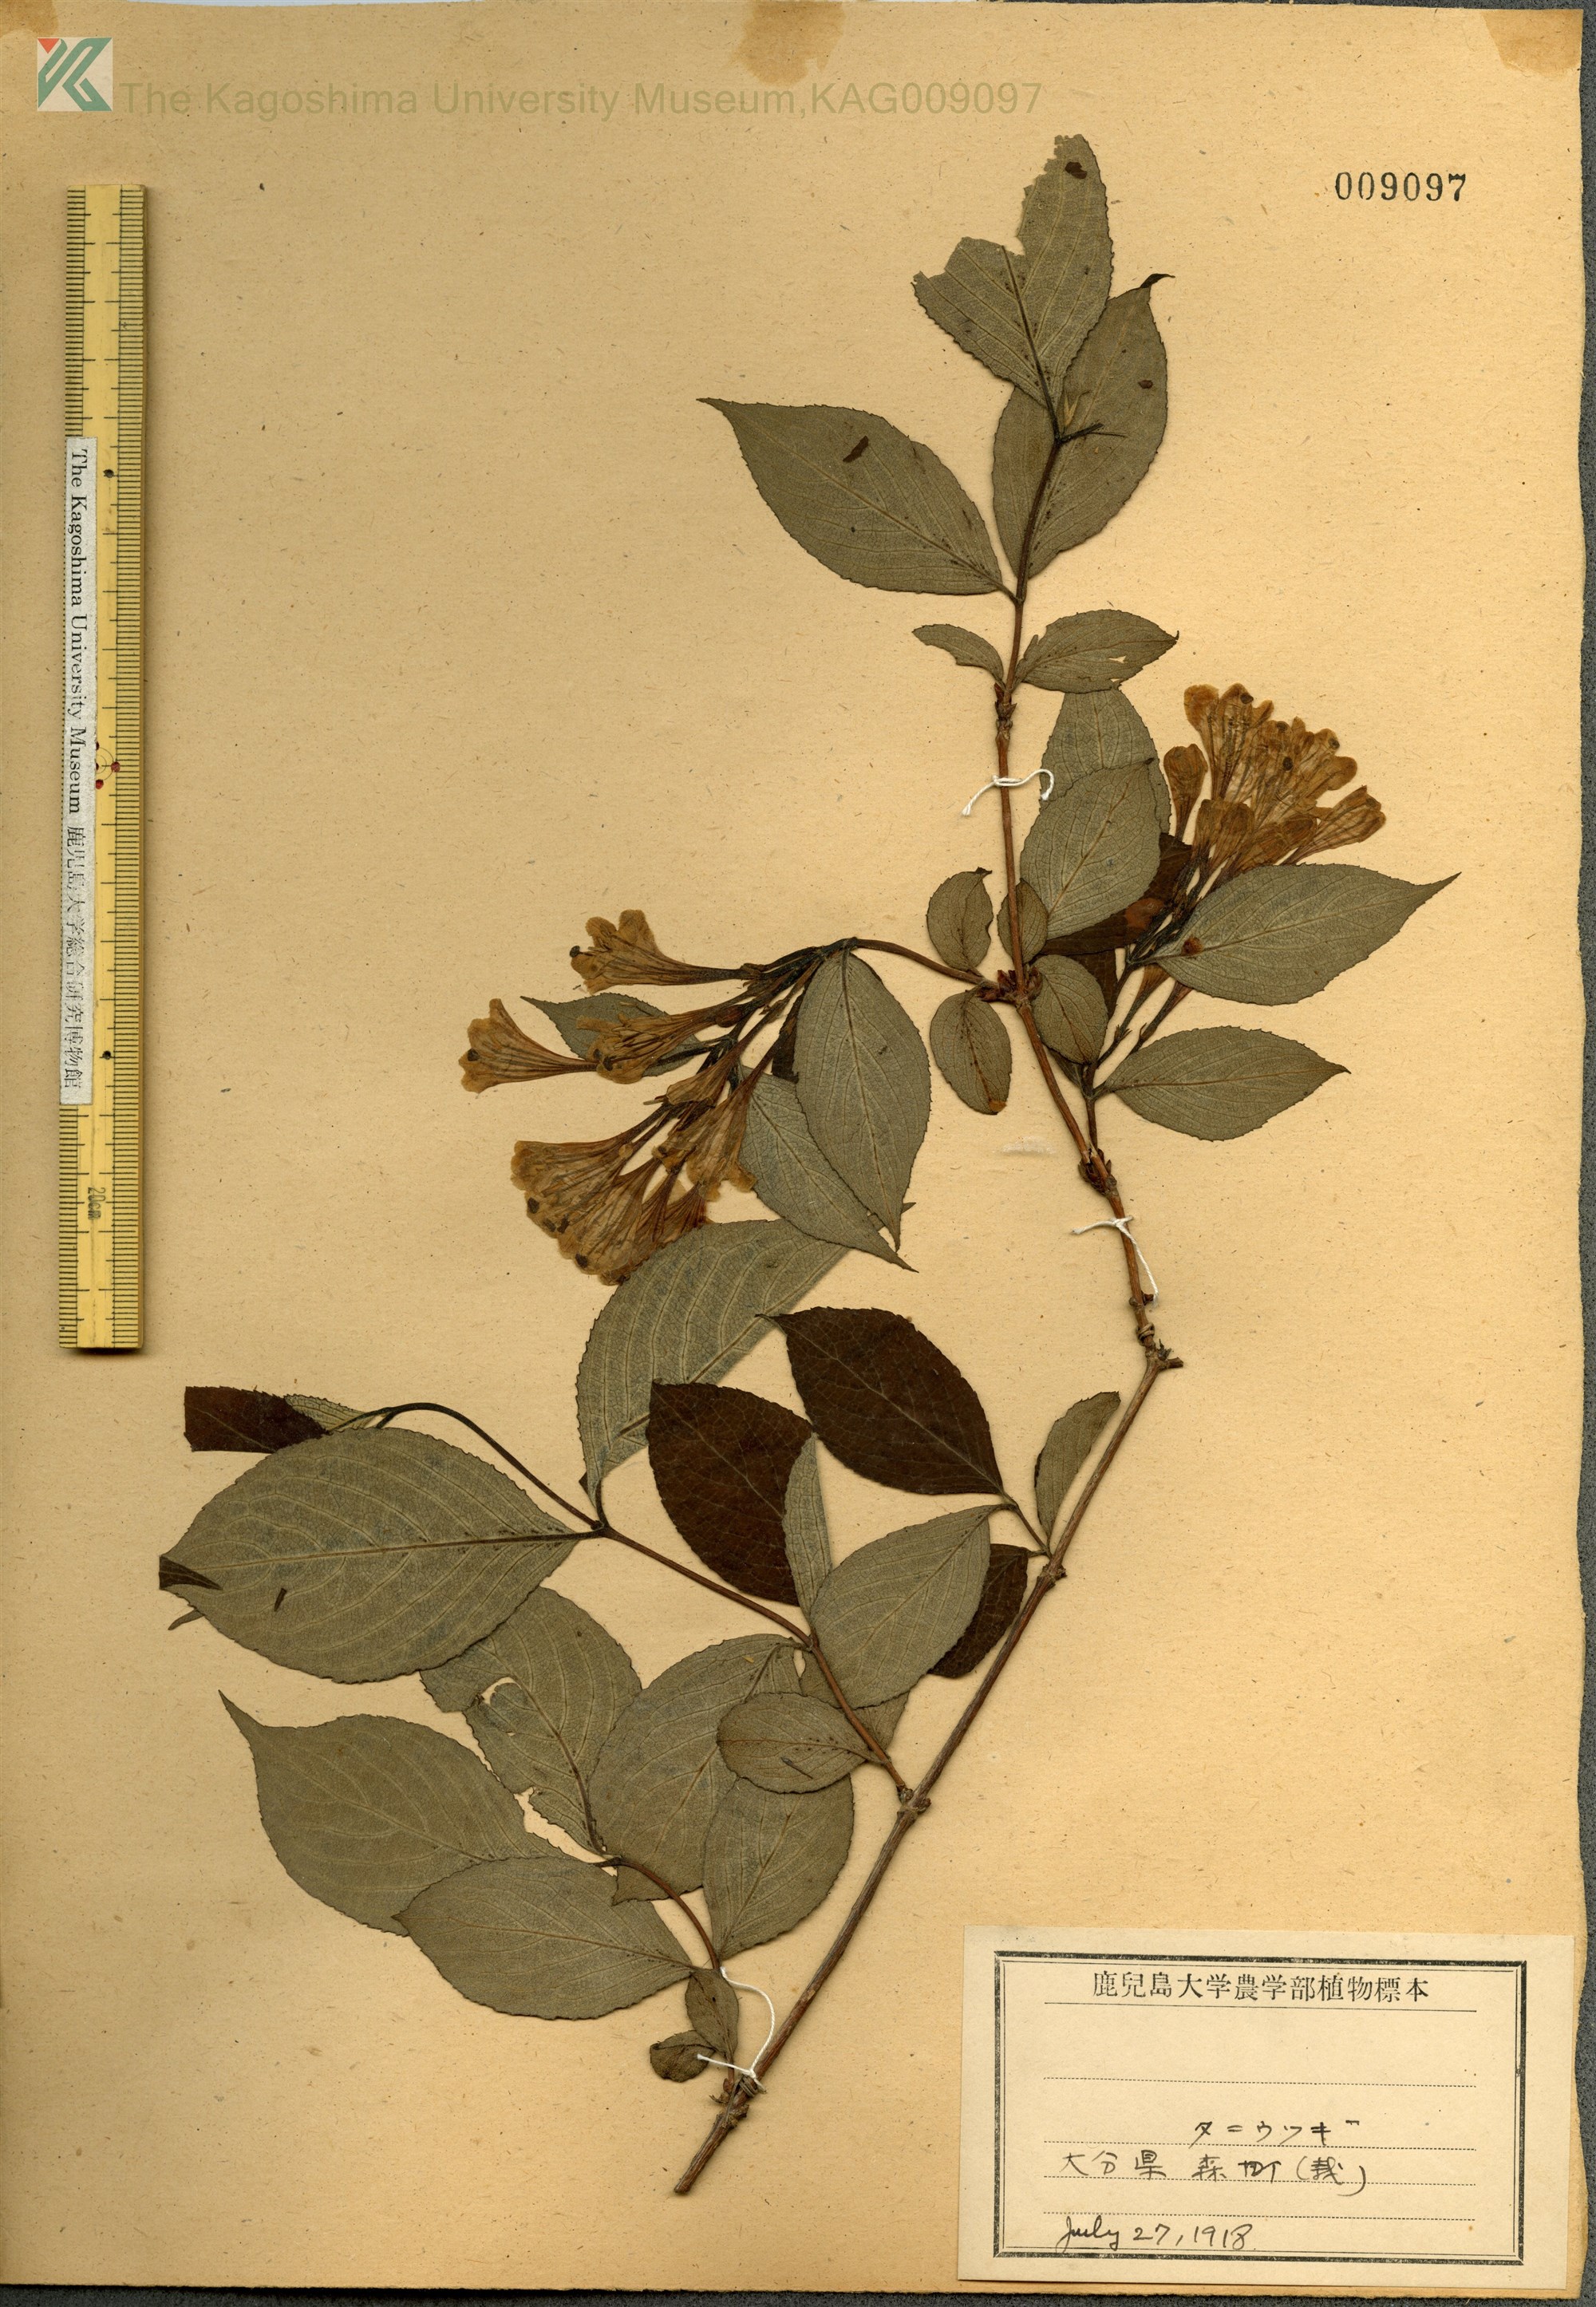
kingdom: Plantae
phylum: Tracheophyta
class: Magnoliopsida
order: Dipsacales
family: Caprifoliaceae
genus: Weigela
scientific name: Weigela hortensis
